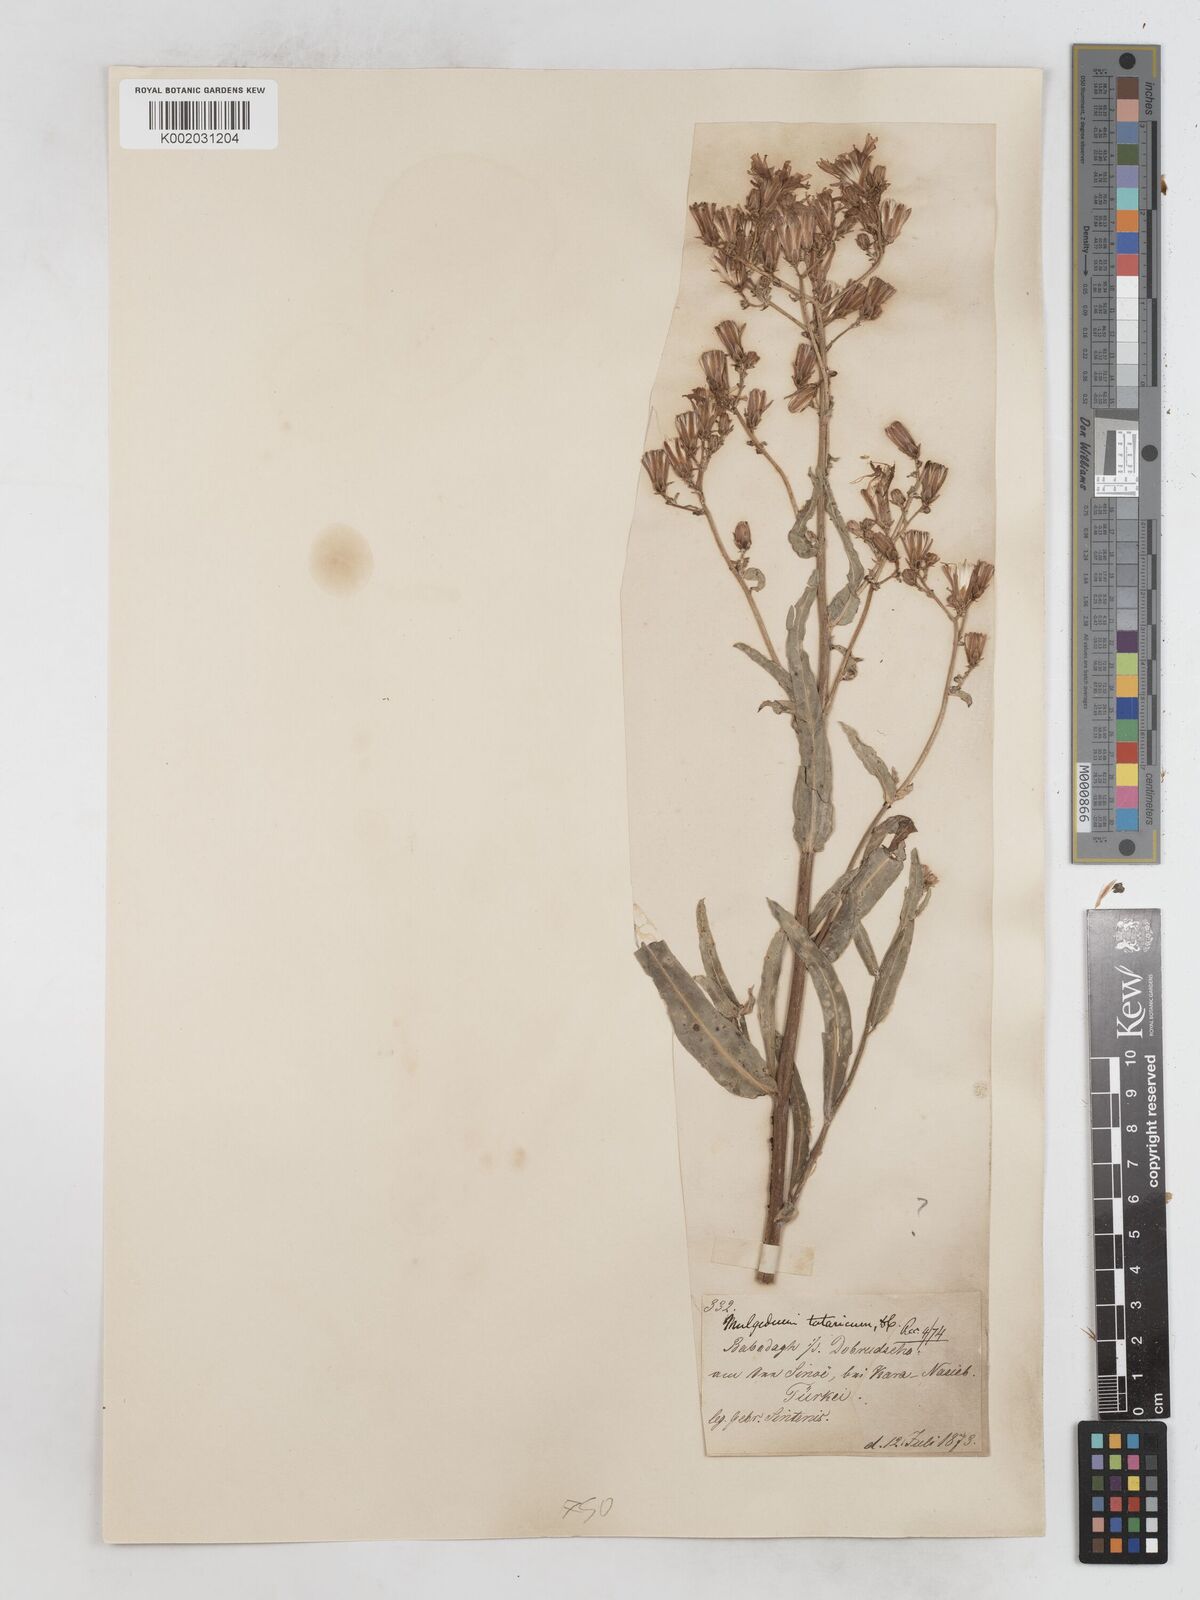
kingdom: Plantae
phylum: Tracheophyta
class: Magnoliopsida
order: Asterales
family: Asteraceae
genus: Lactuca
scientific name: Lactuca tatarica
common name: Blue lettuce
